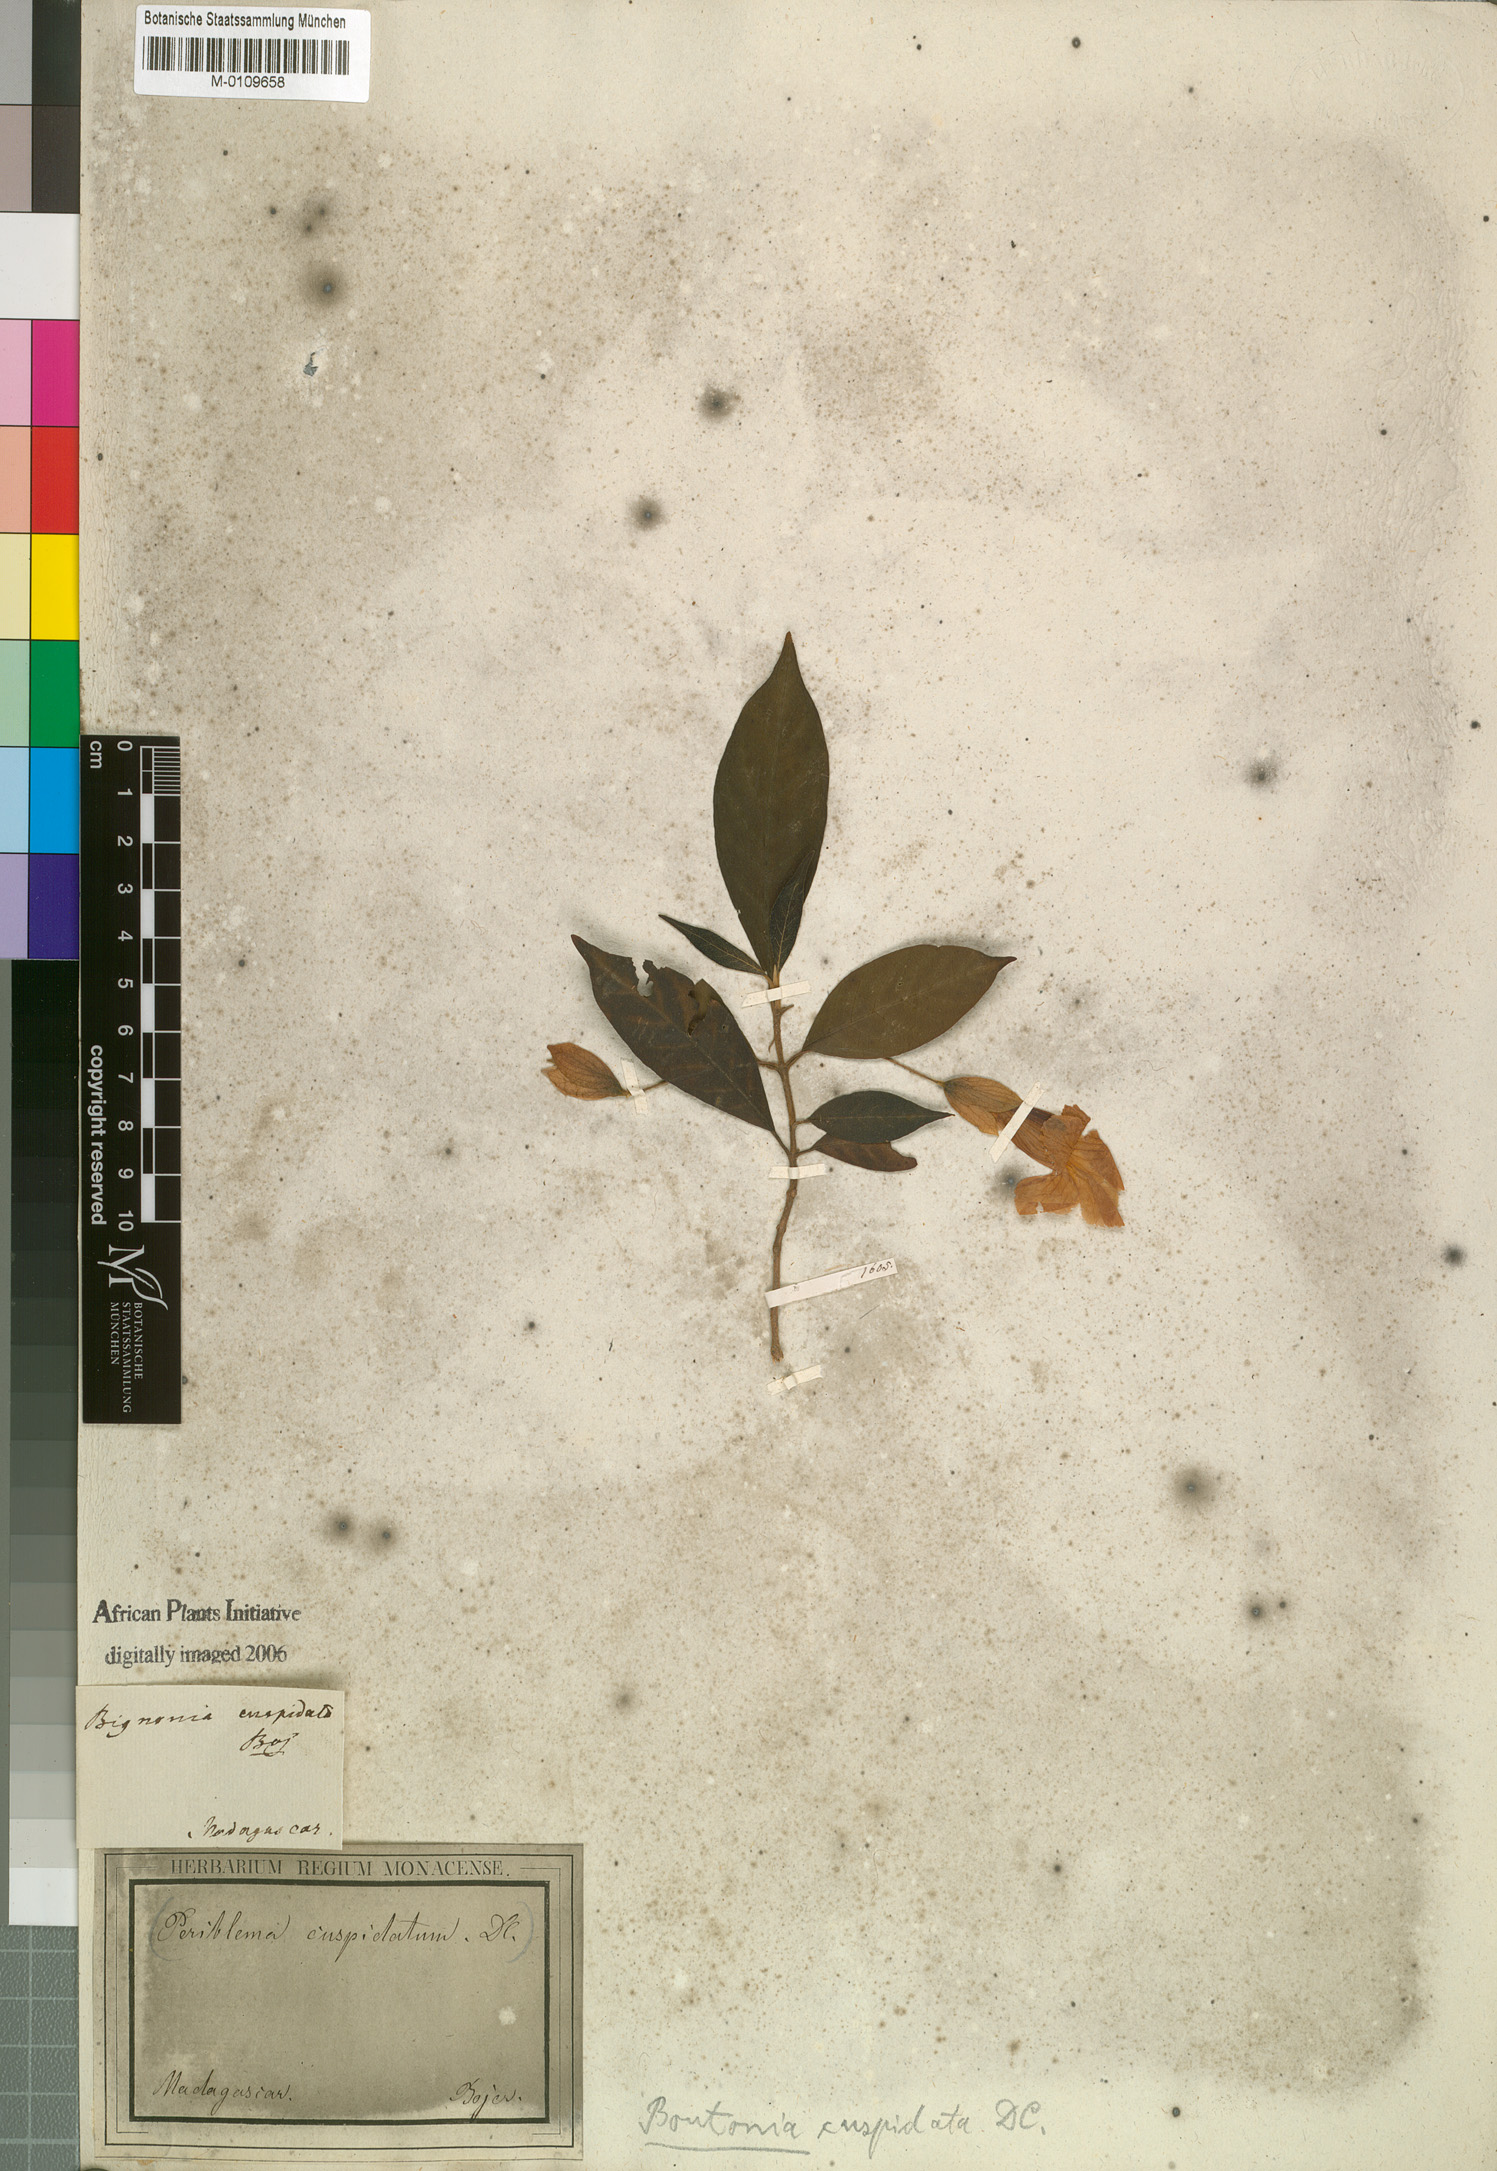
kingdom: Plantae
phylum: Tracheophyta
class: Magnoliopsida
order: Lamiales
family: Acanthaceae
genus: Boutonia
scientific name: Boutonia cuspidata
